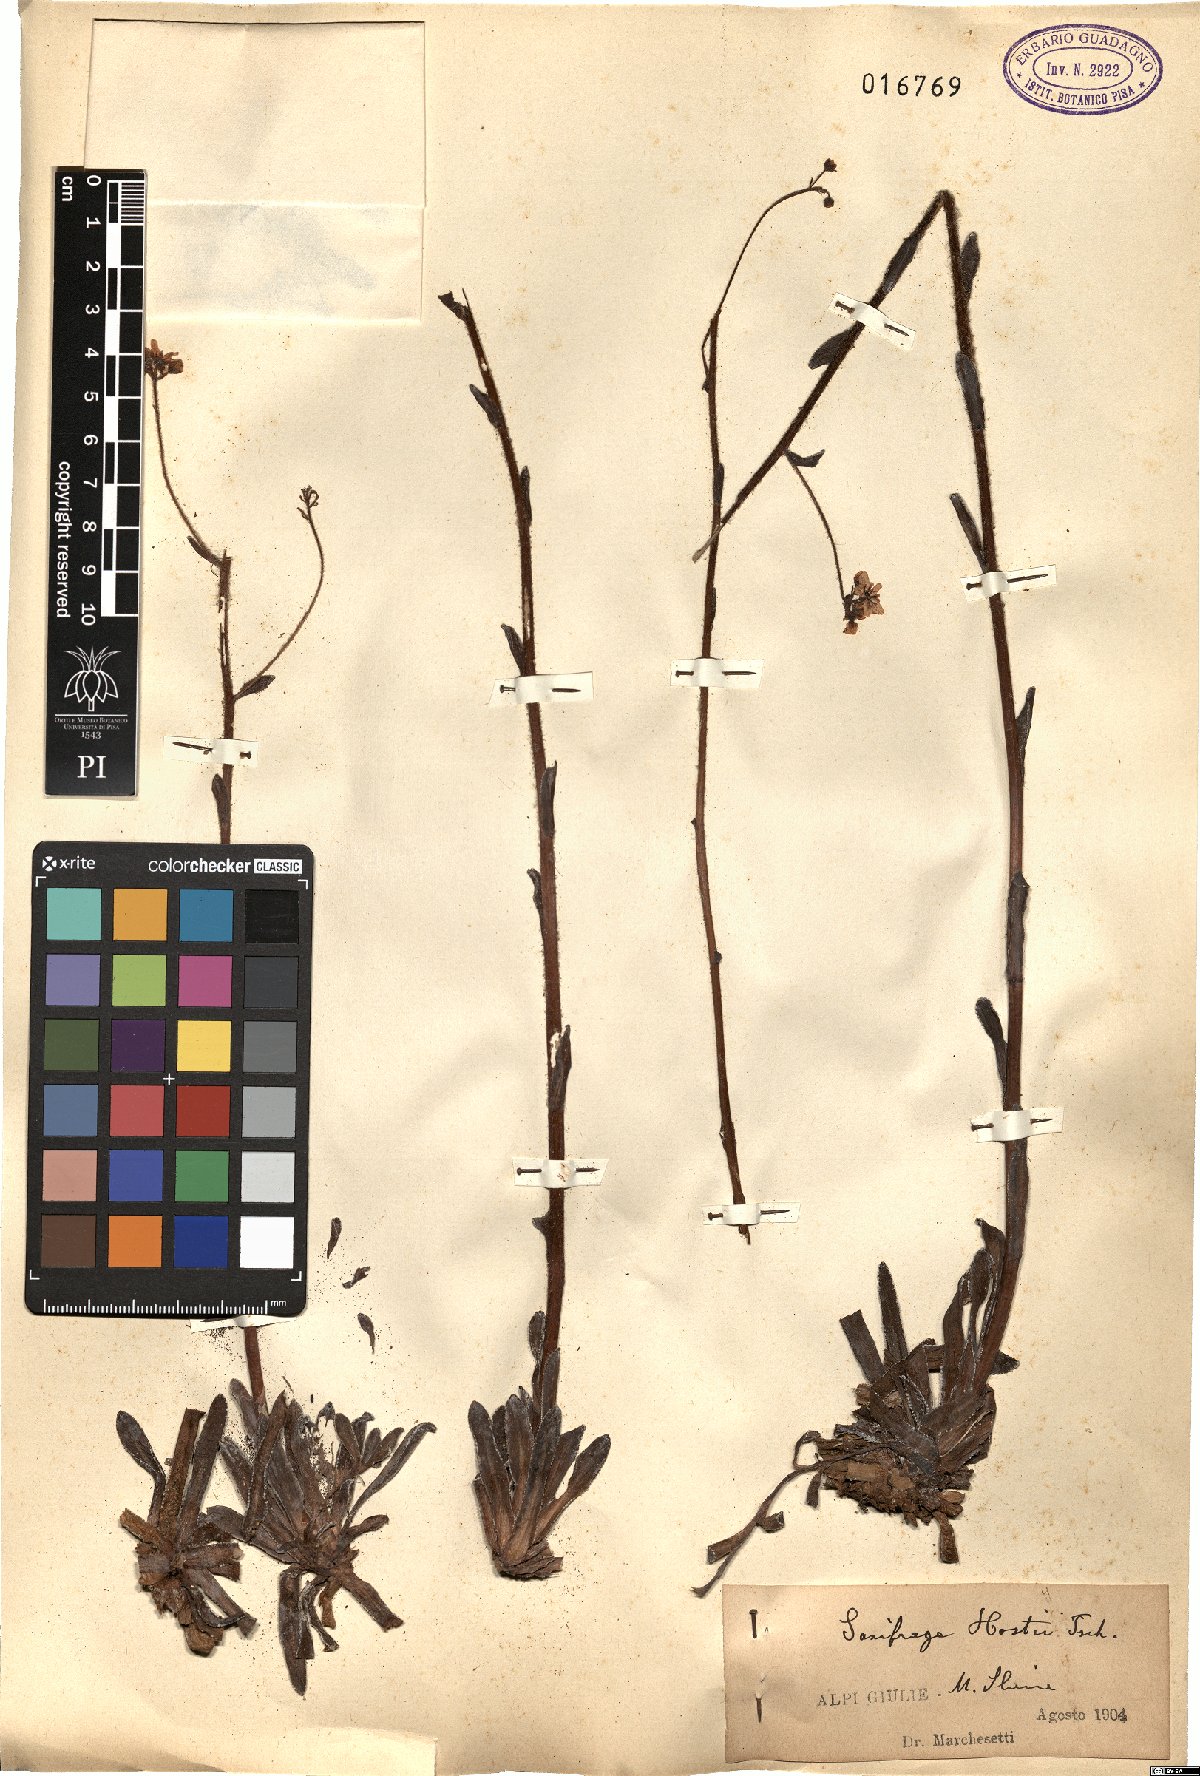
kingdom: Plantae
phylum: Tracheophyta
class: Magnoliopsida
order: Saxifragales
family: Saxifragaceae
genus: Saxifraga
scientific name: Saxifraga hostii
